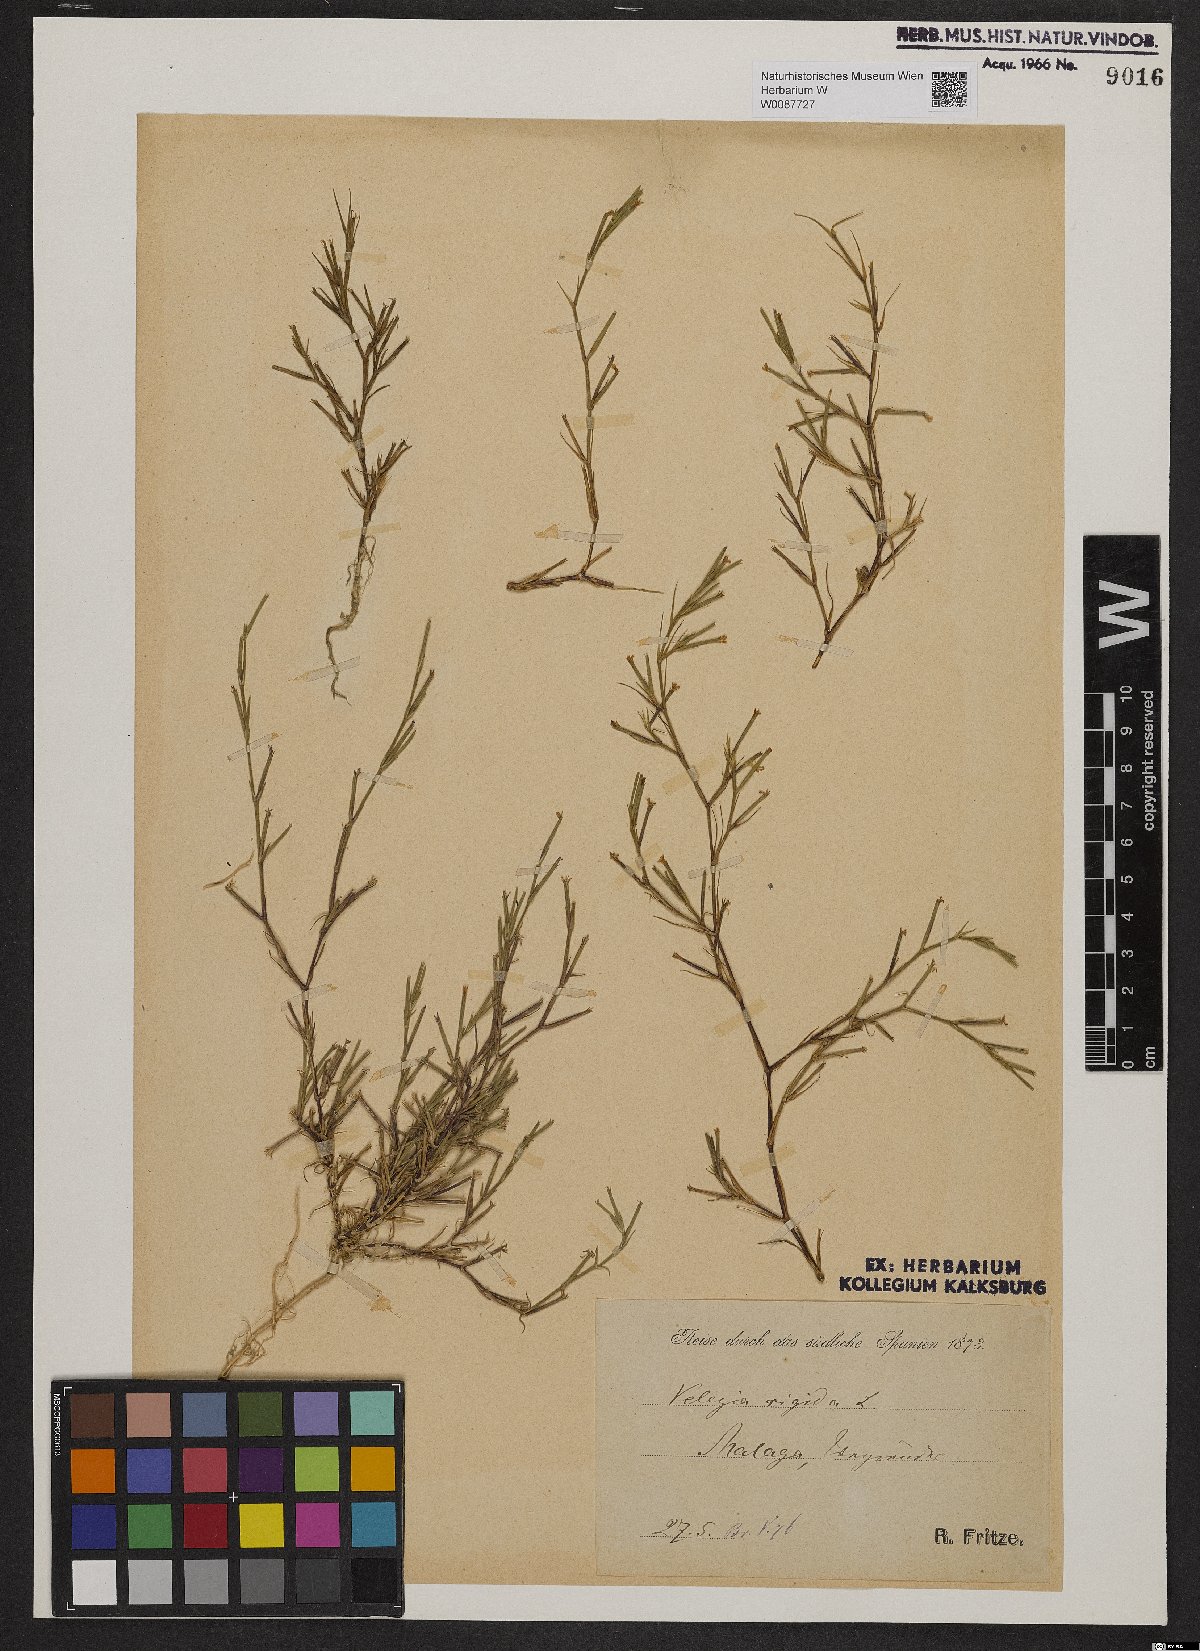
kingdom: Plantae
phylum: Tracheophyta
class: Magnoliopsida
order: Caryophyllales
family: Caryophyllaceae
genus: Dianthus
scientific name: Dianthus nudiflorus
